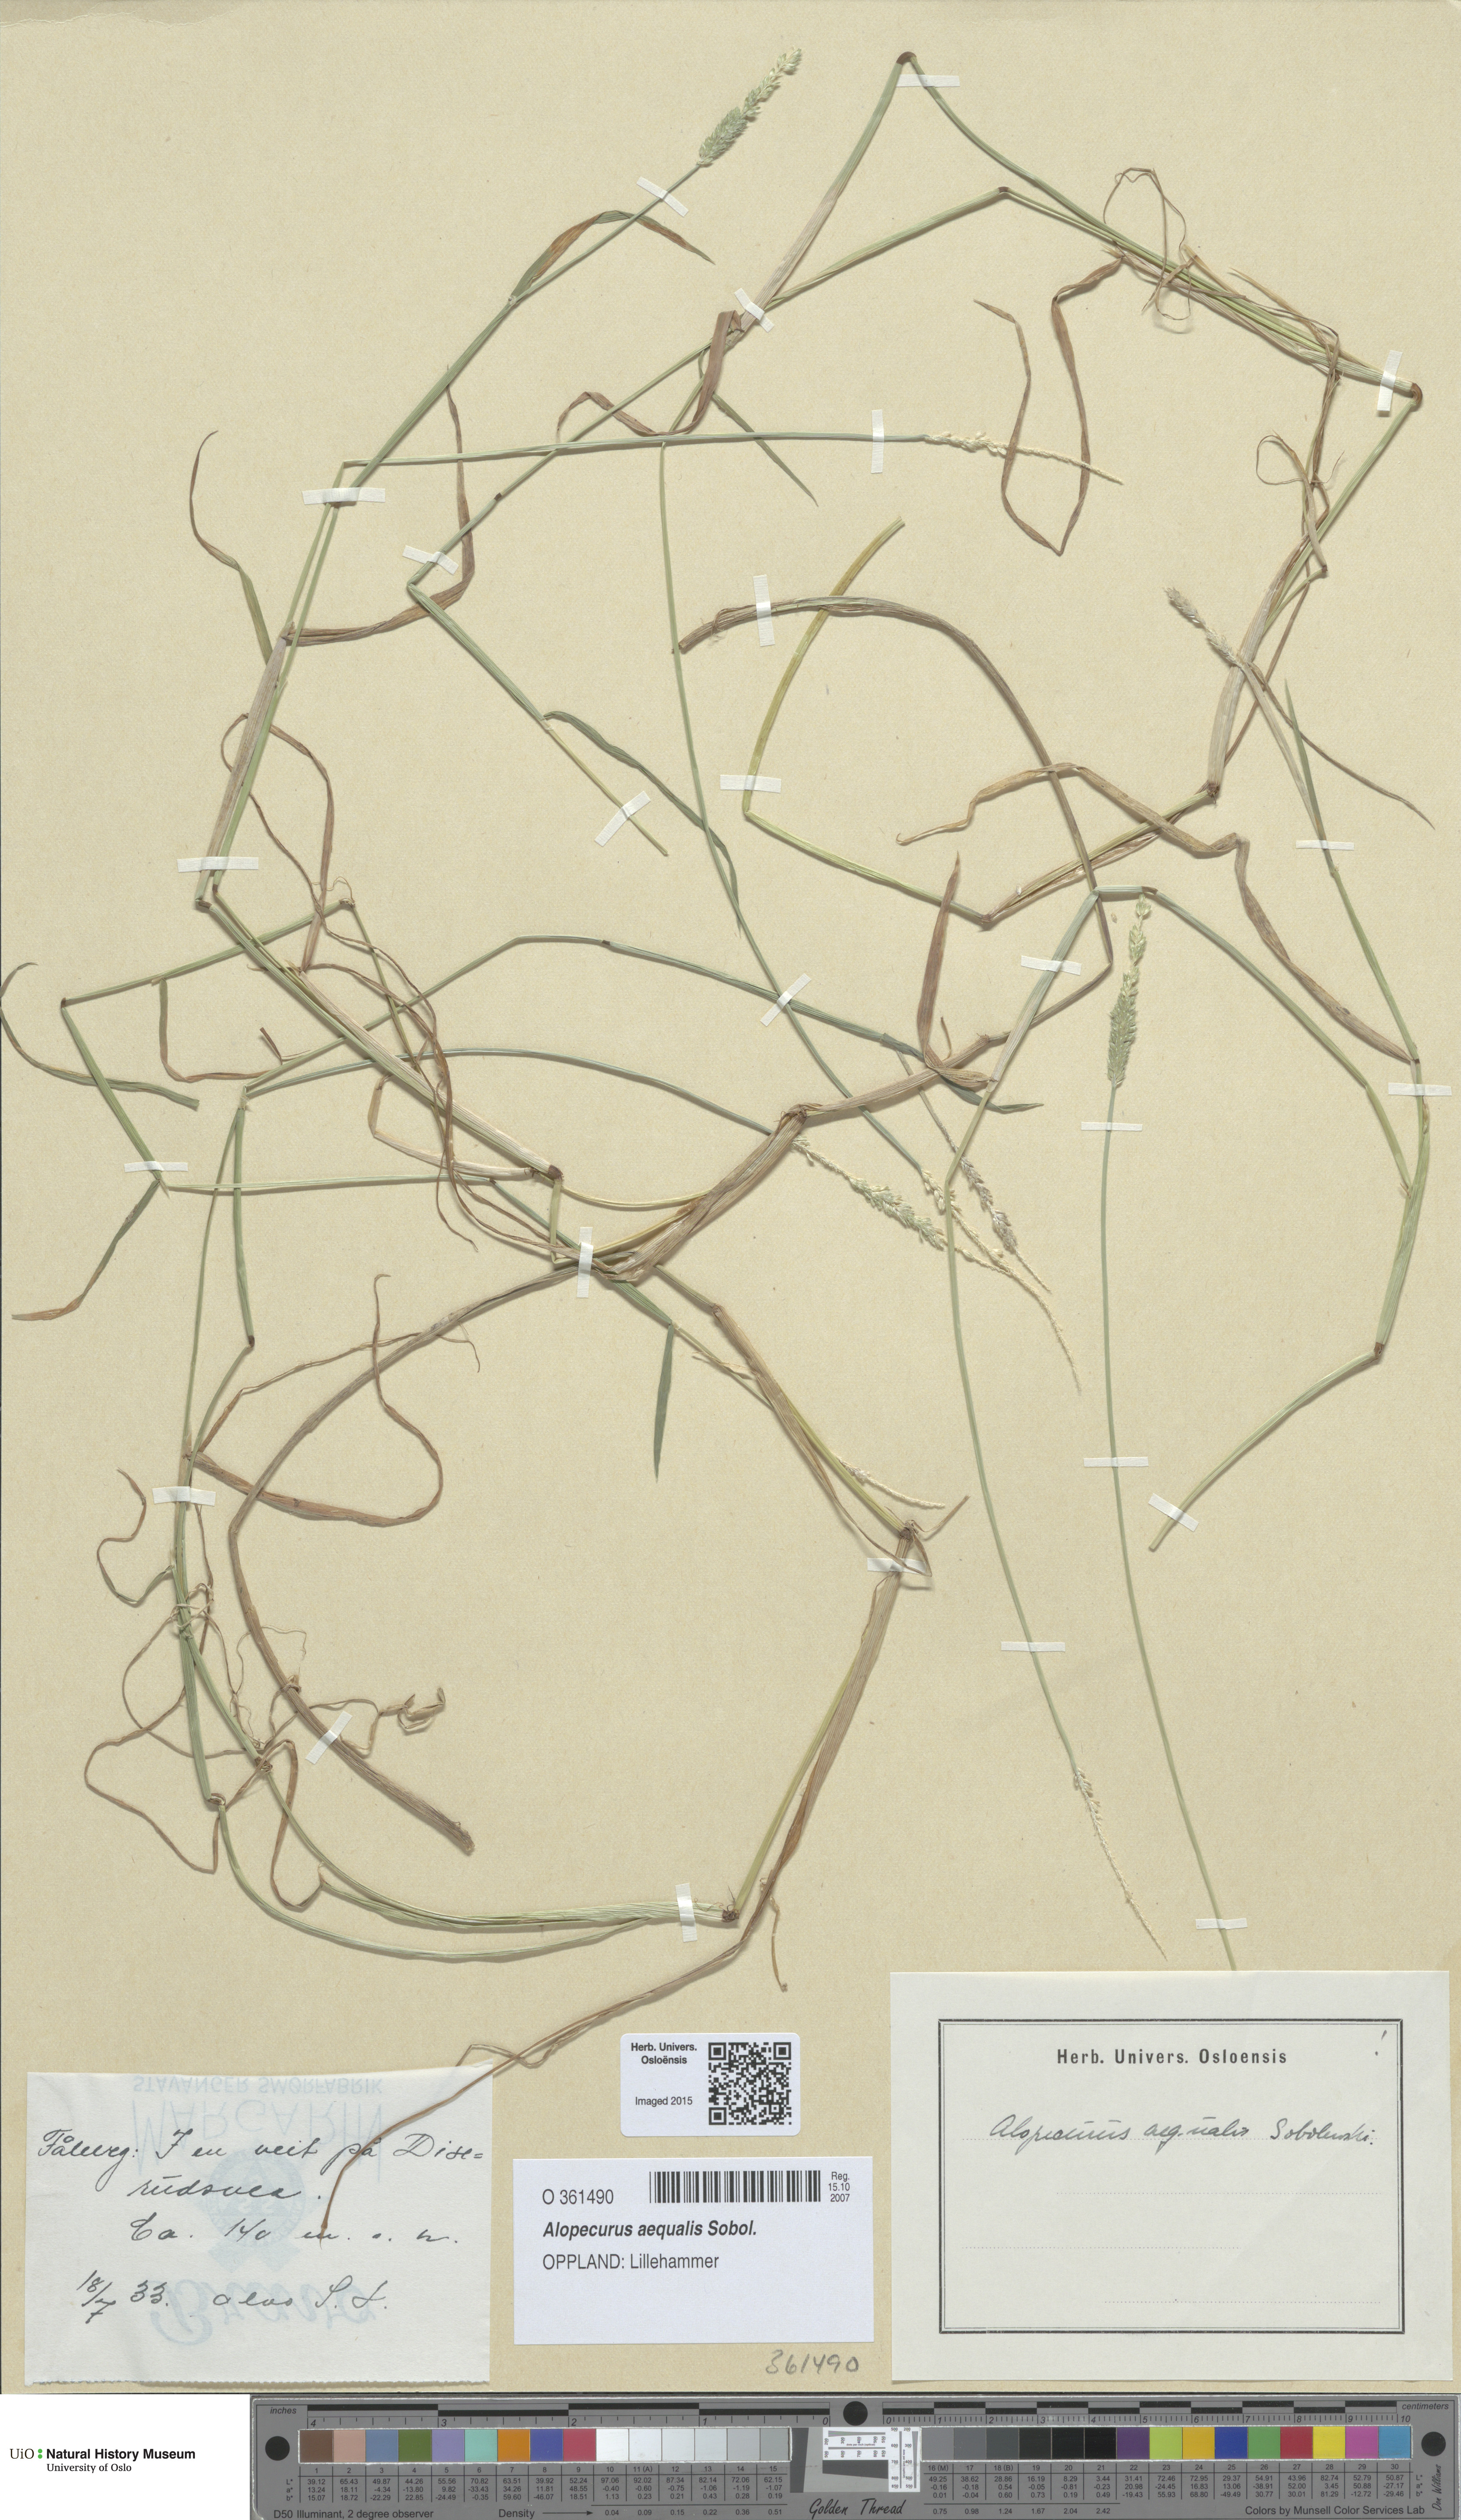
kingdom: Plantae
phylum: Tracheophyta
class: Liliopsida
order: Poales
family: Poaceae
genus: Alopecurus
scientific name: Alopecurus aequalis
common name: Orange foxtail
